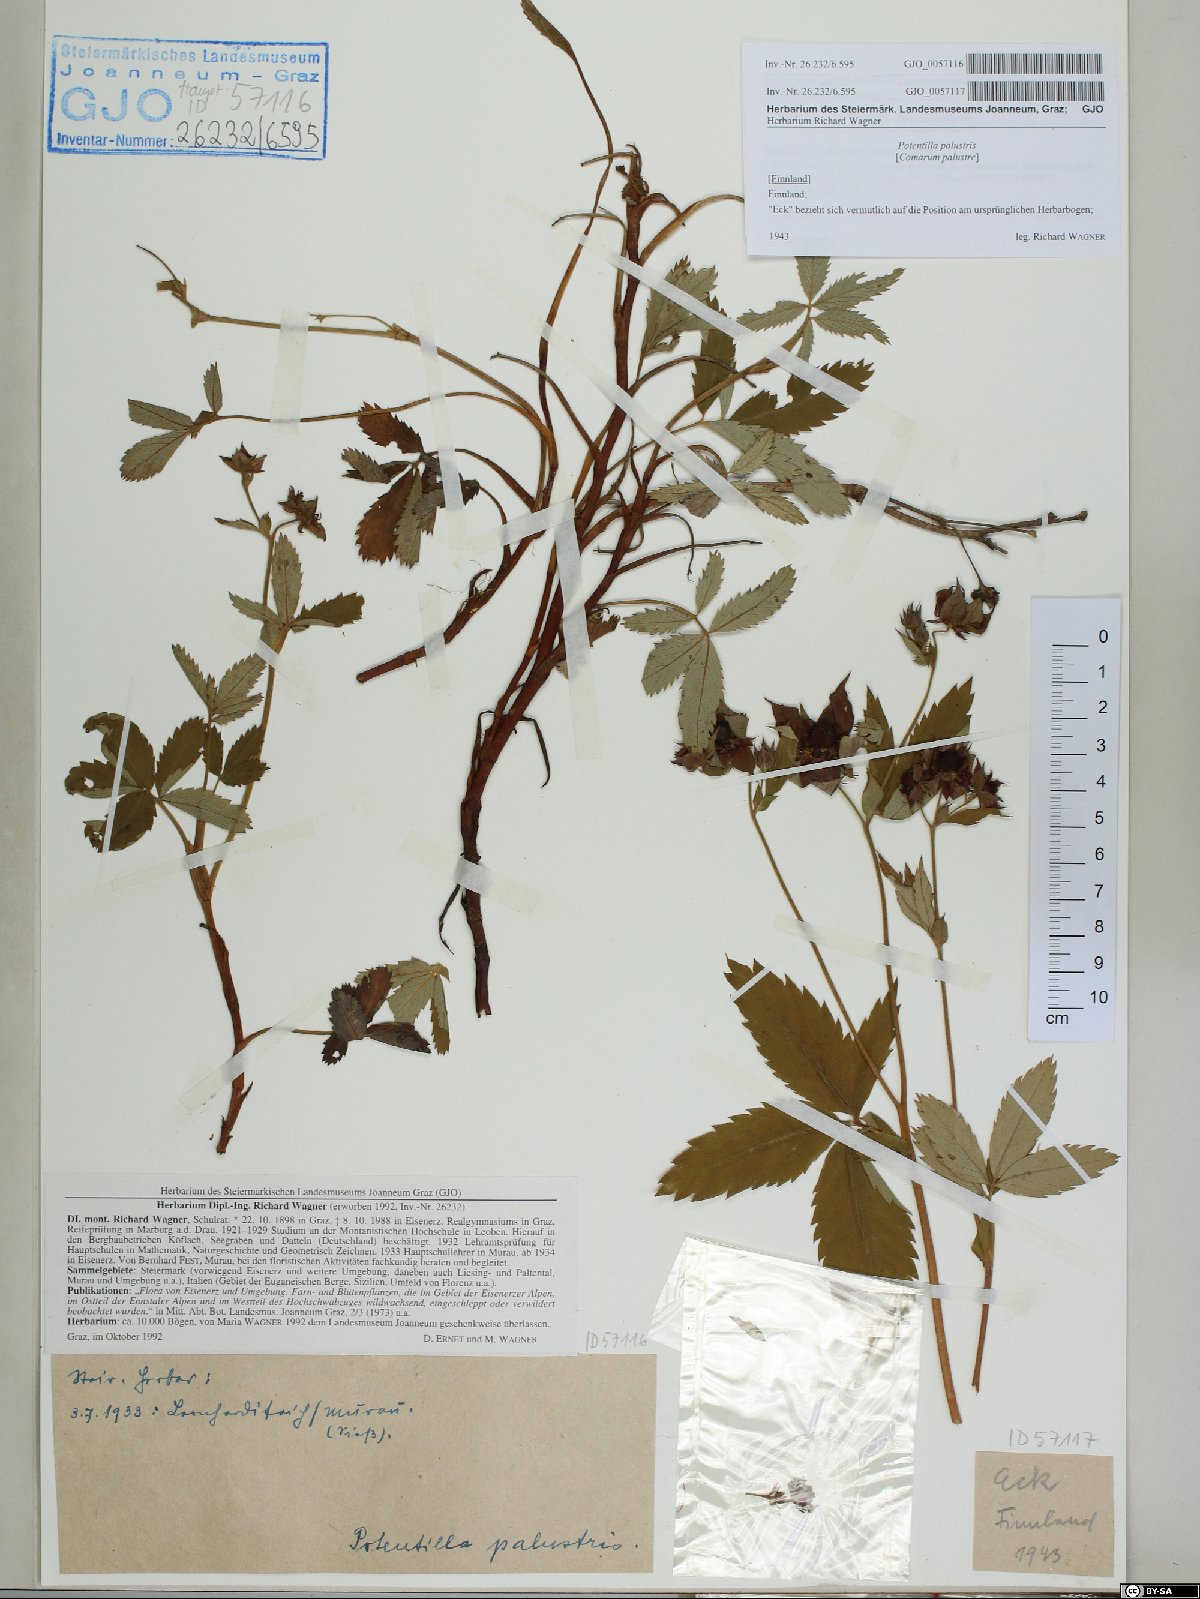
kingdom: Plantae
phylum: Tracheophyta
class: Magnoliopsida
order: Rosales
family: Rosaceae
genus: Comarum
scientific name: Comarum palustre
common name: Marsh cinquefoil
